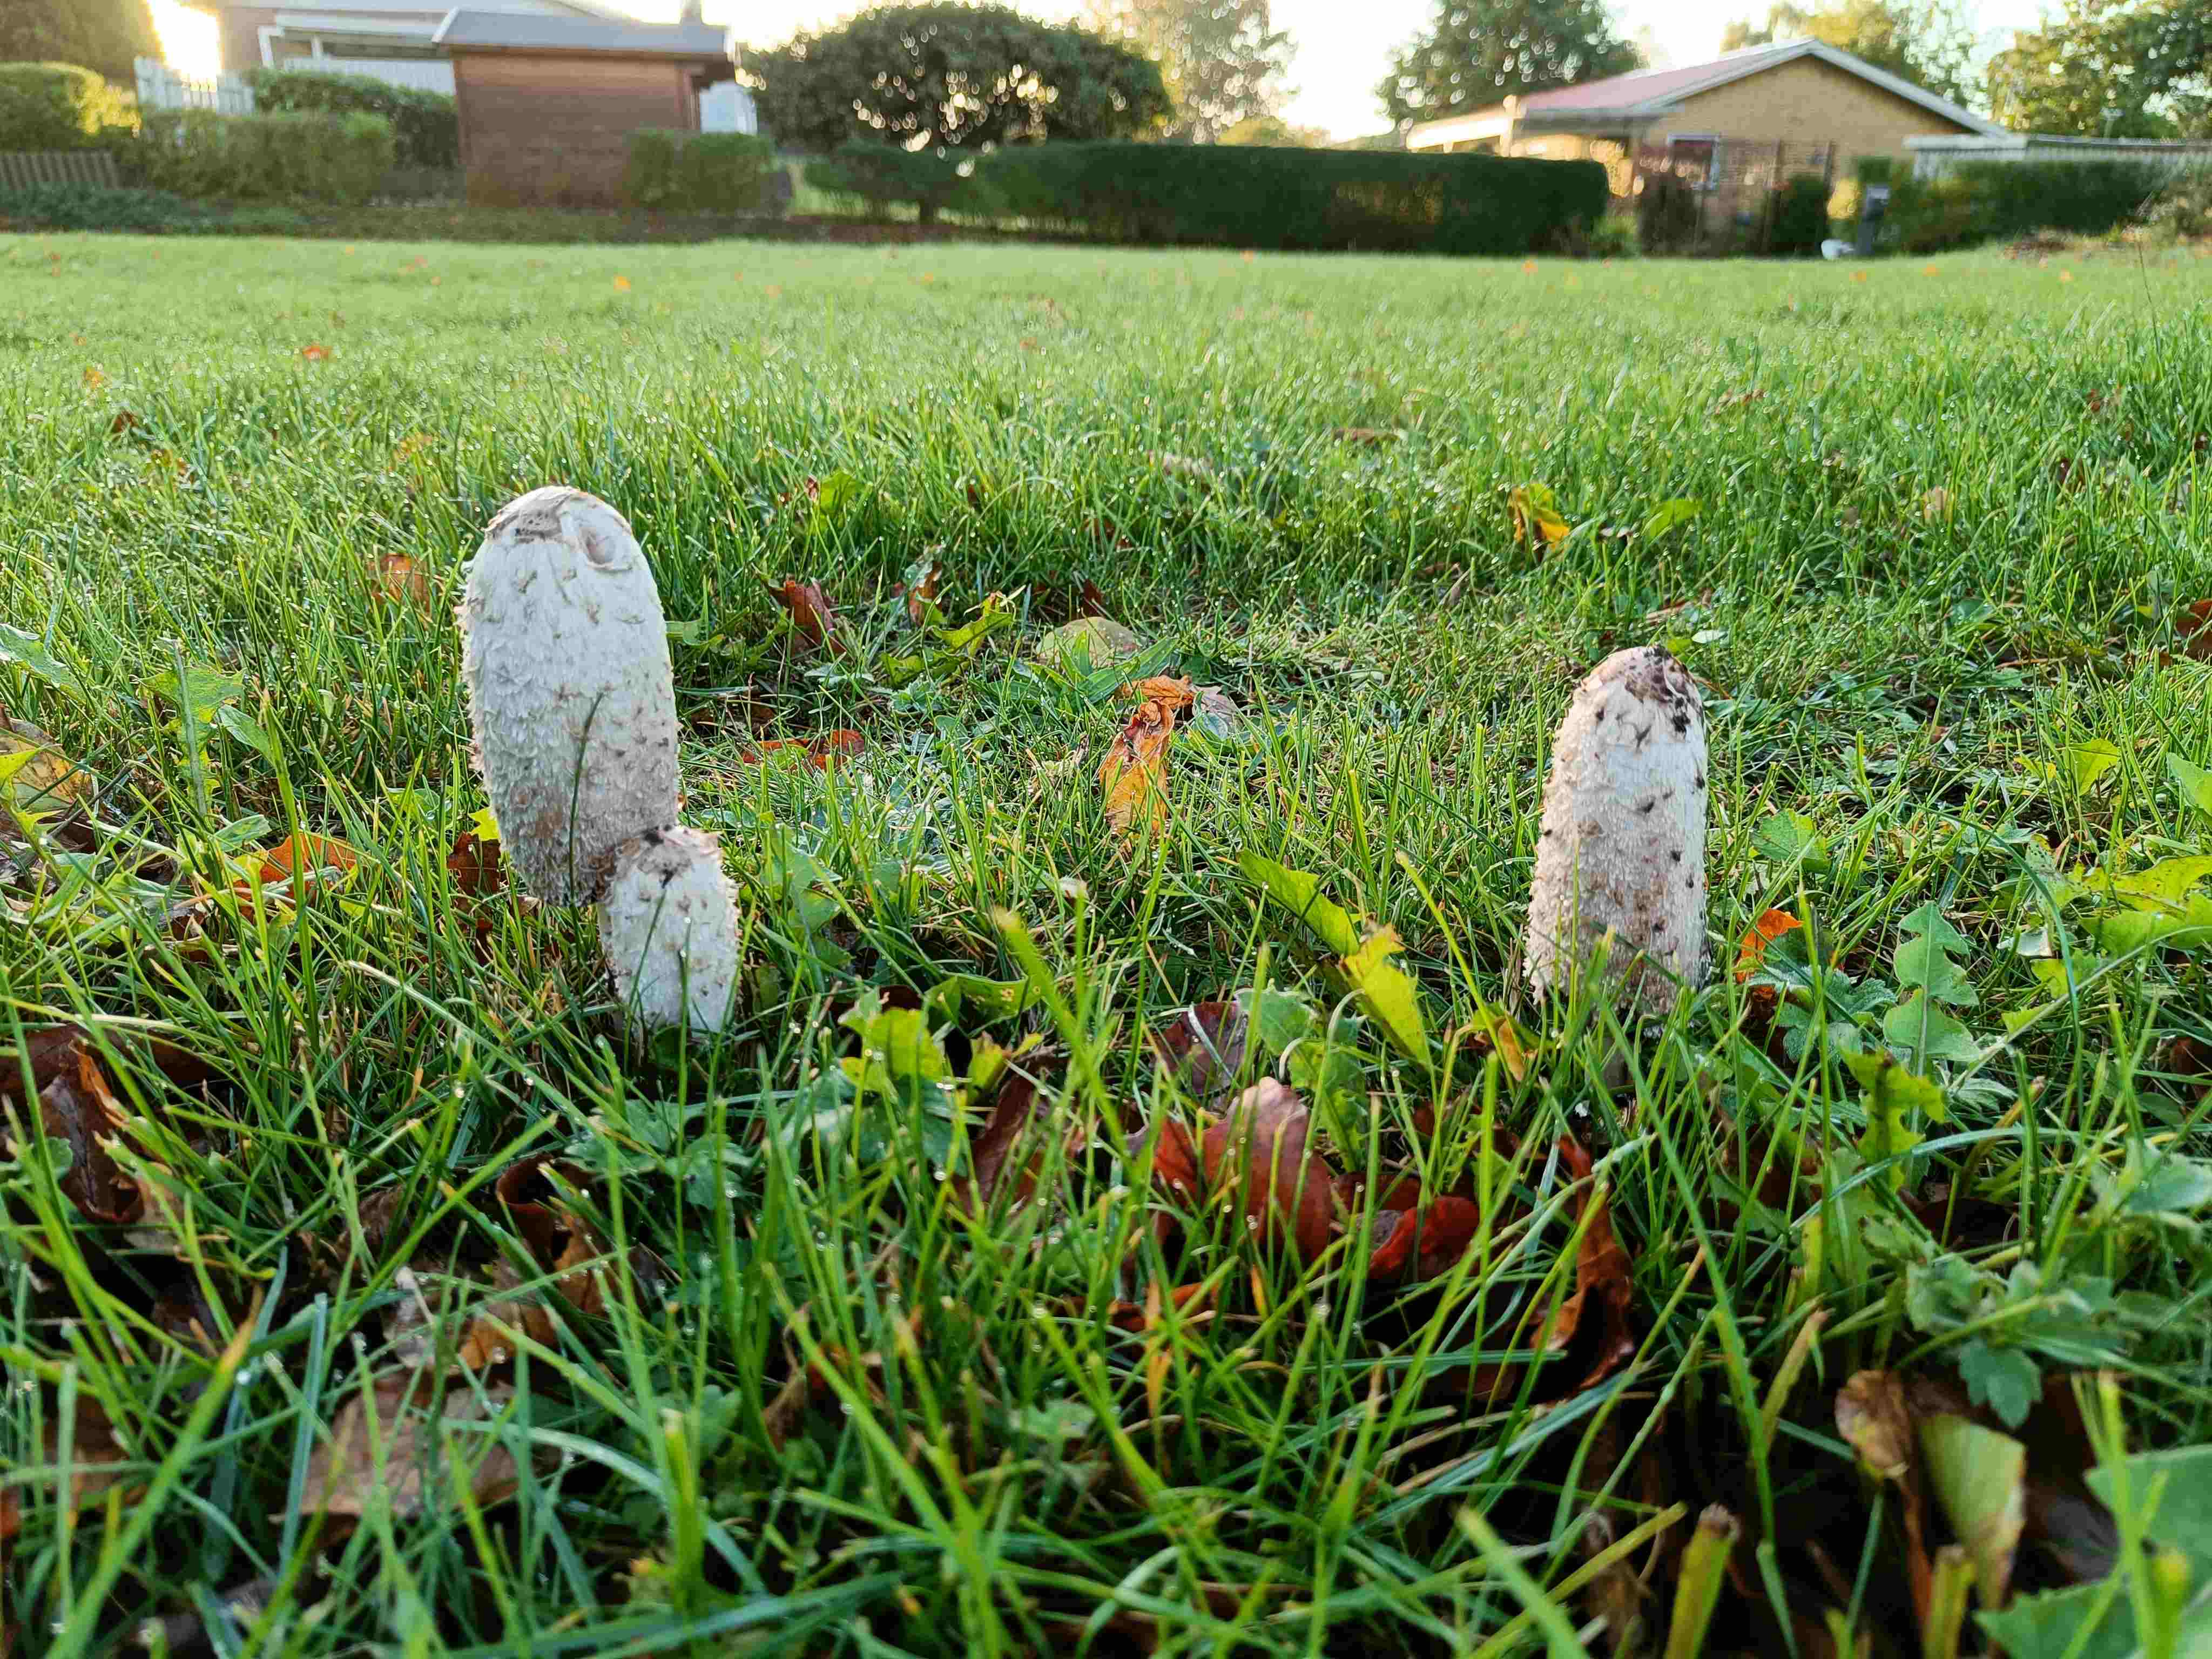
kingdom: Fungi
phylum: Basidiomycota
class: Agaricomycetes
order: Agaricales
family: Agaricaceae
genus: Coprinus
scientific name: Coprinus comatus
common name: stor parykhat
